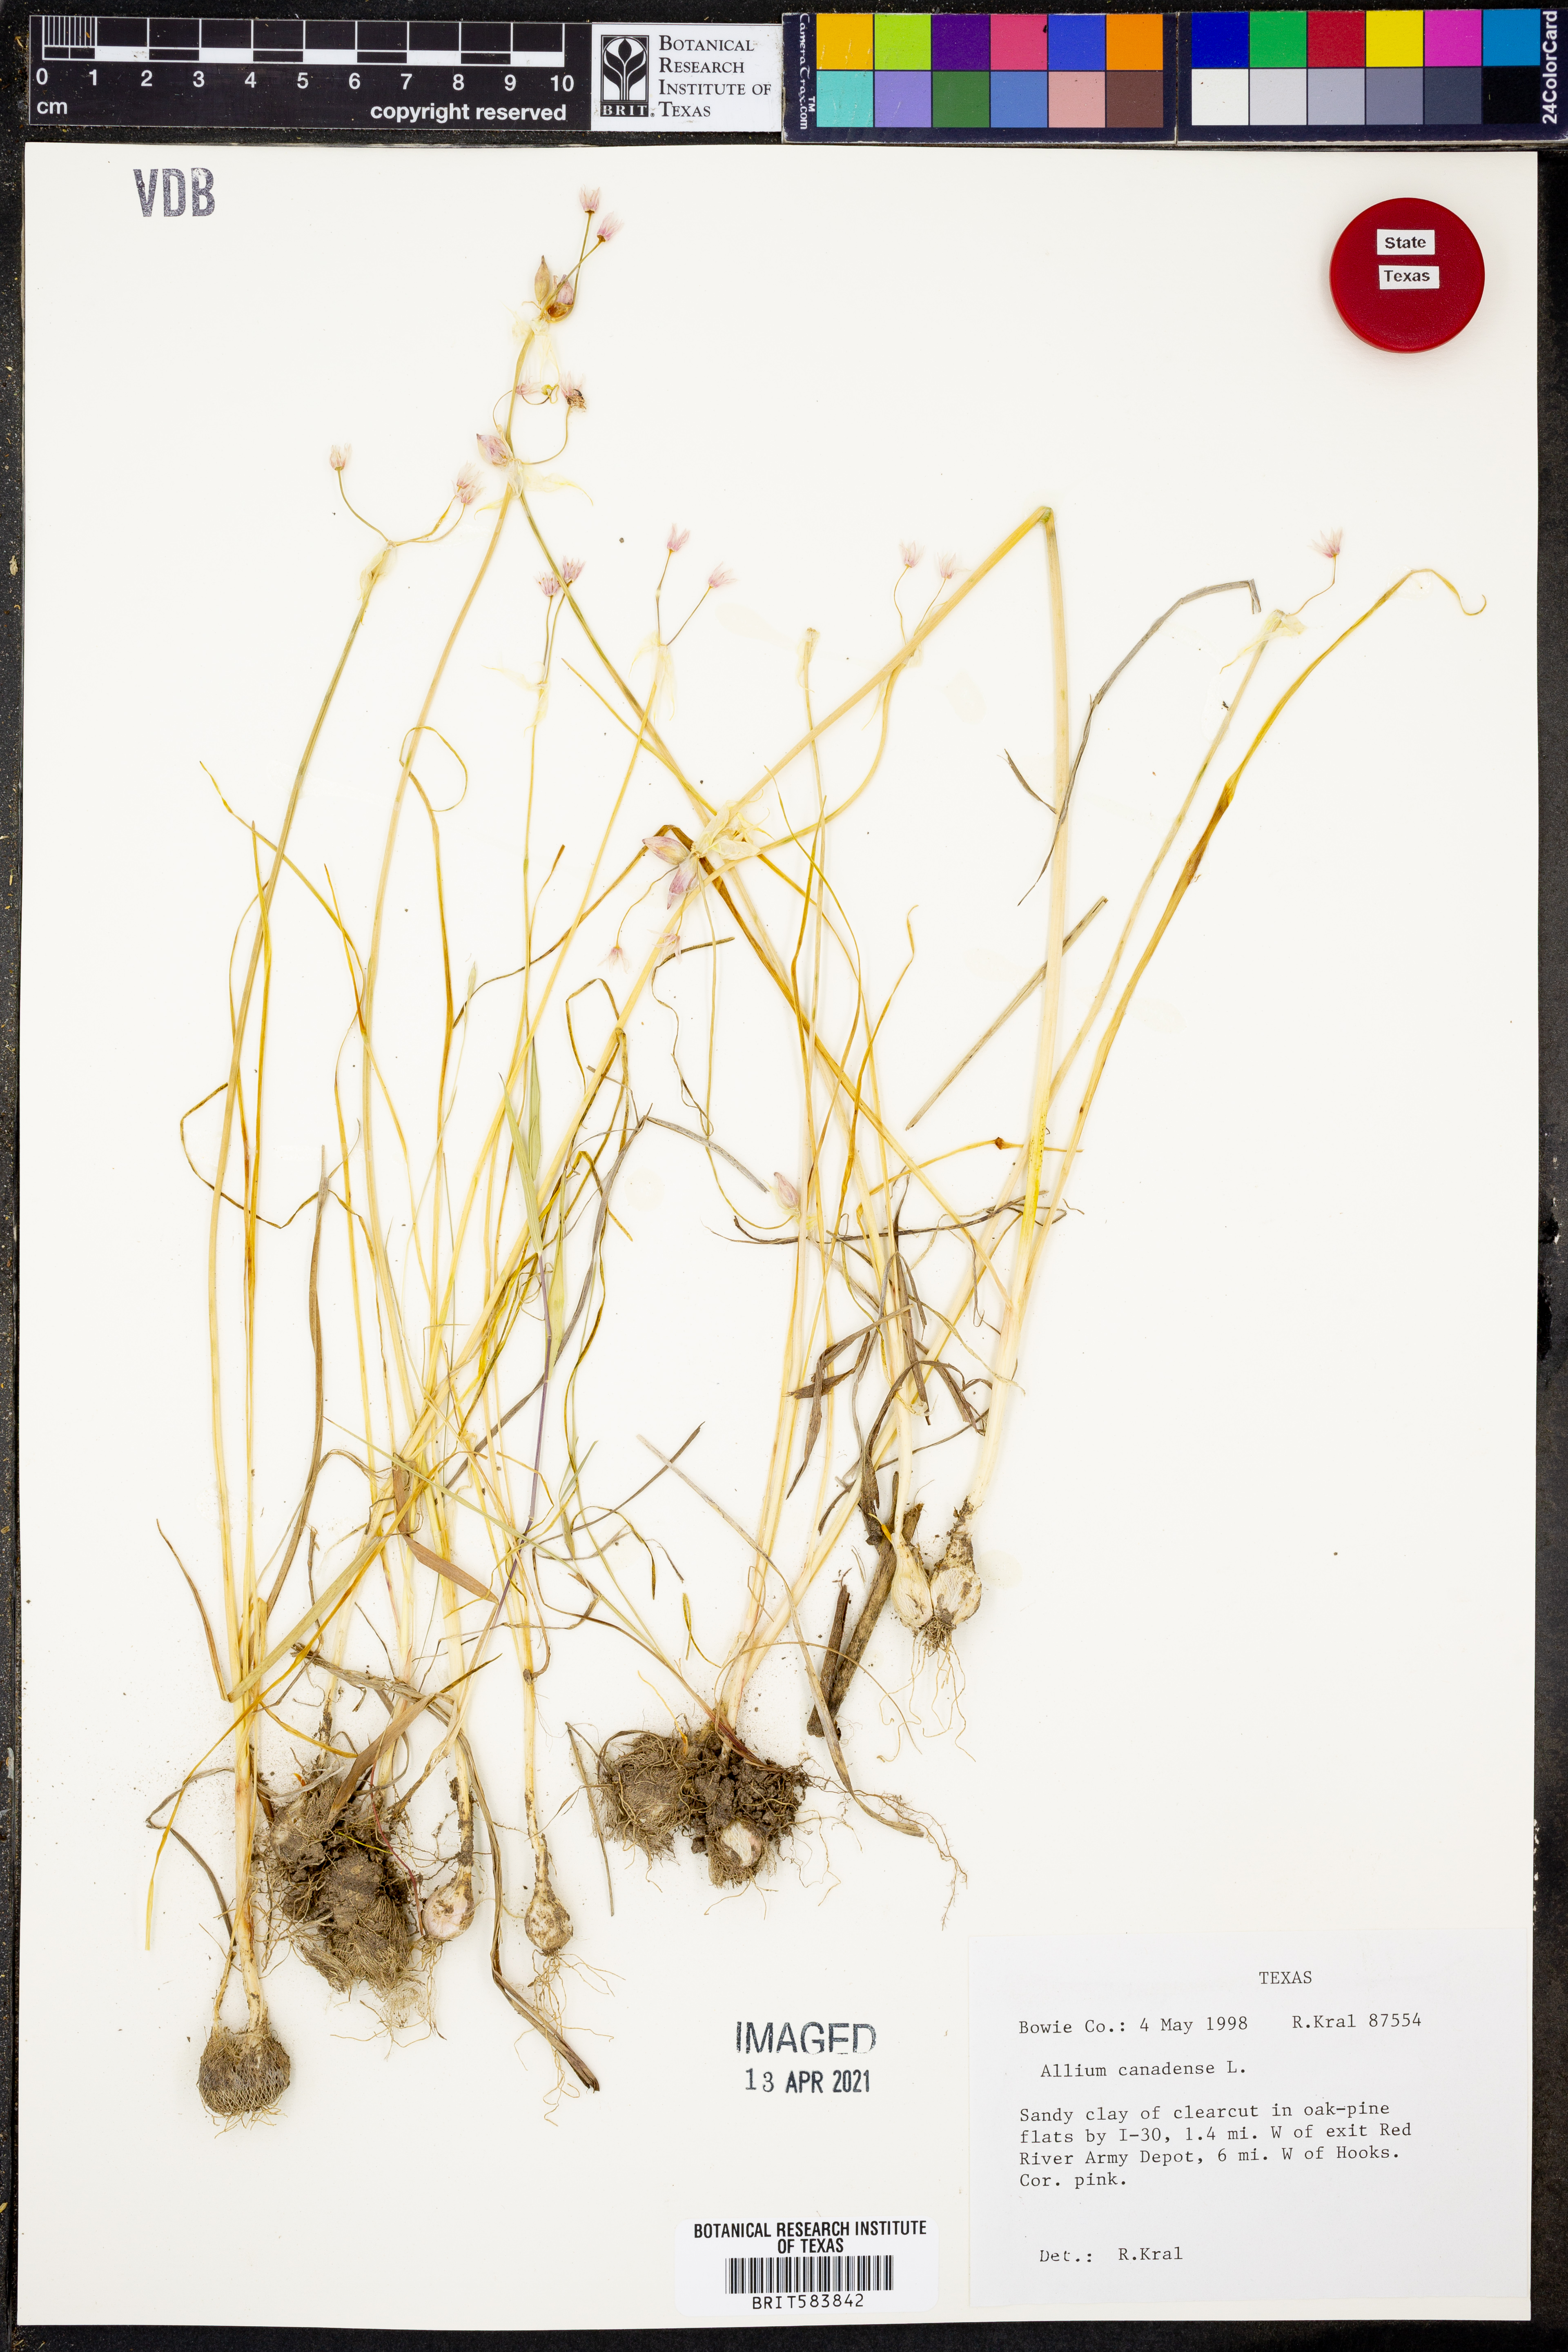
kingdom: Plantae
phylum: Tracheophyta
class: Liliopsida
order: Asparagales
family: Amaryllidaceae
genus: Allium
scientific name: Allium canadense
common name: Meadow garlic
